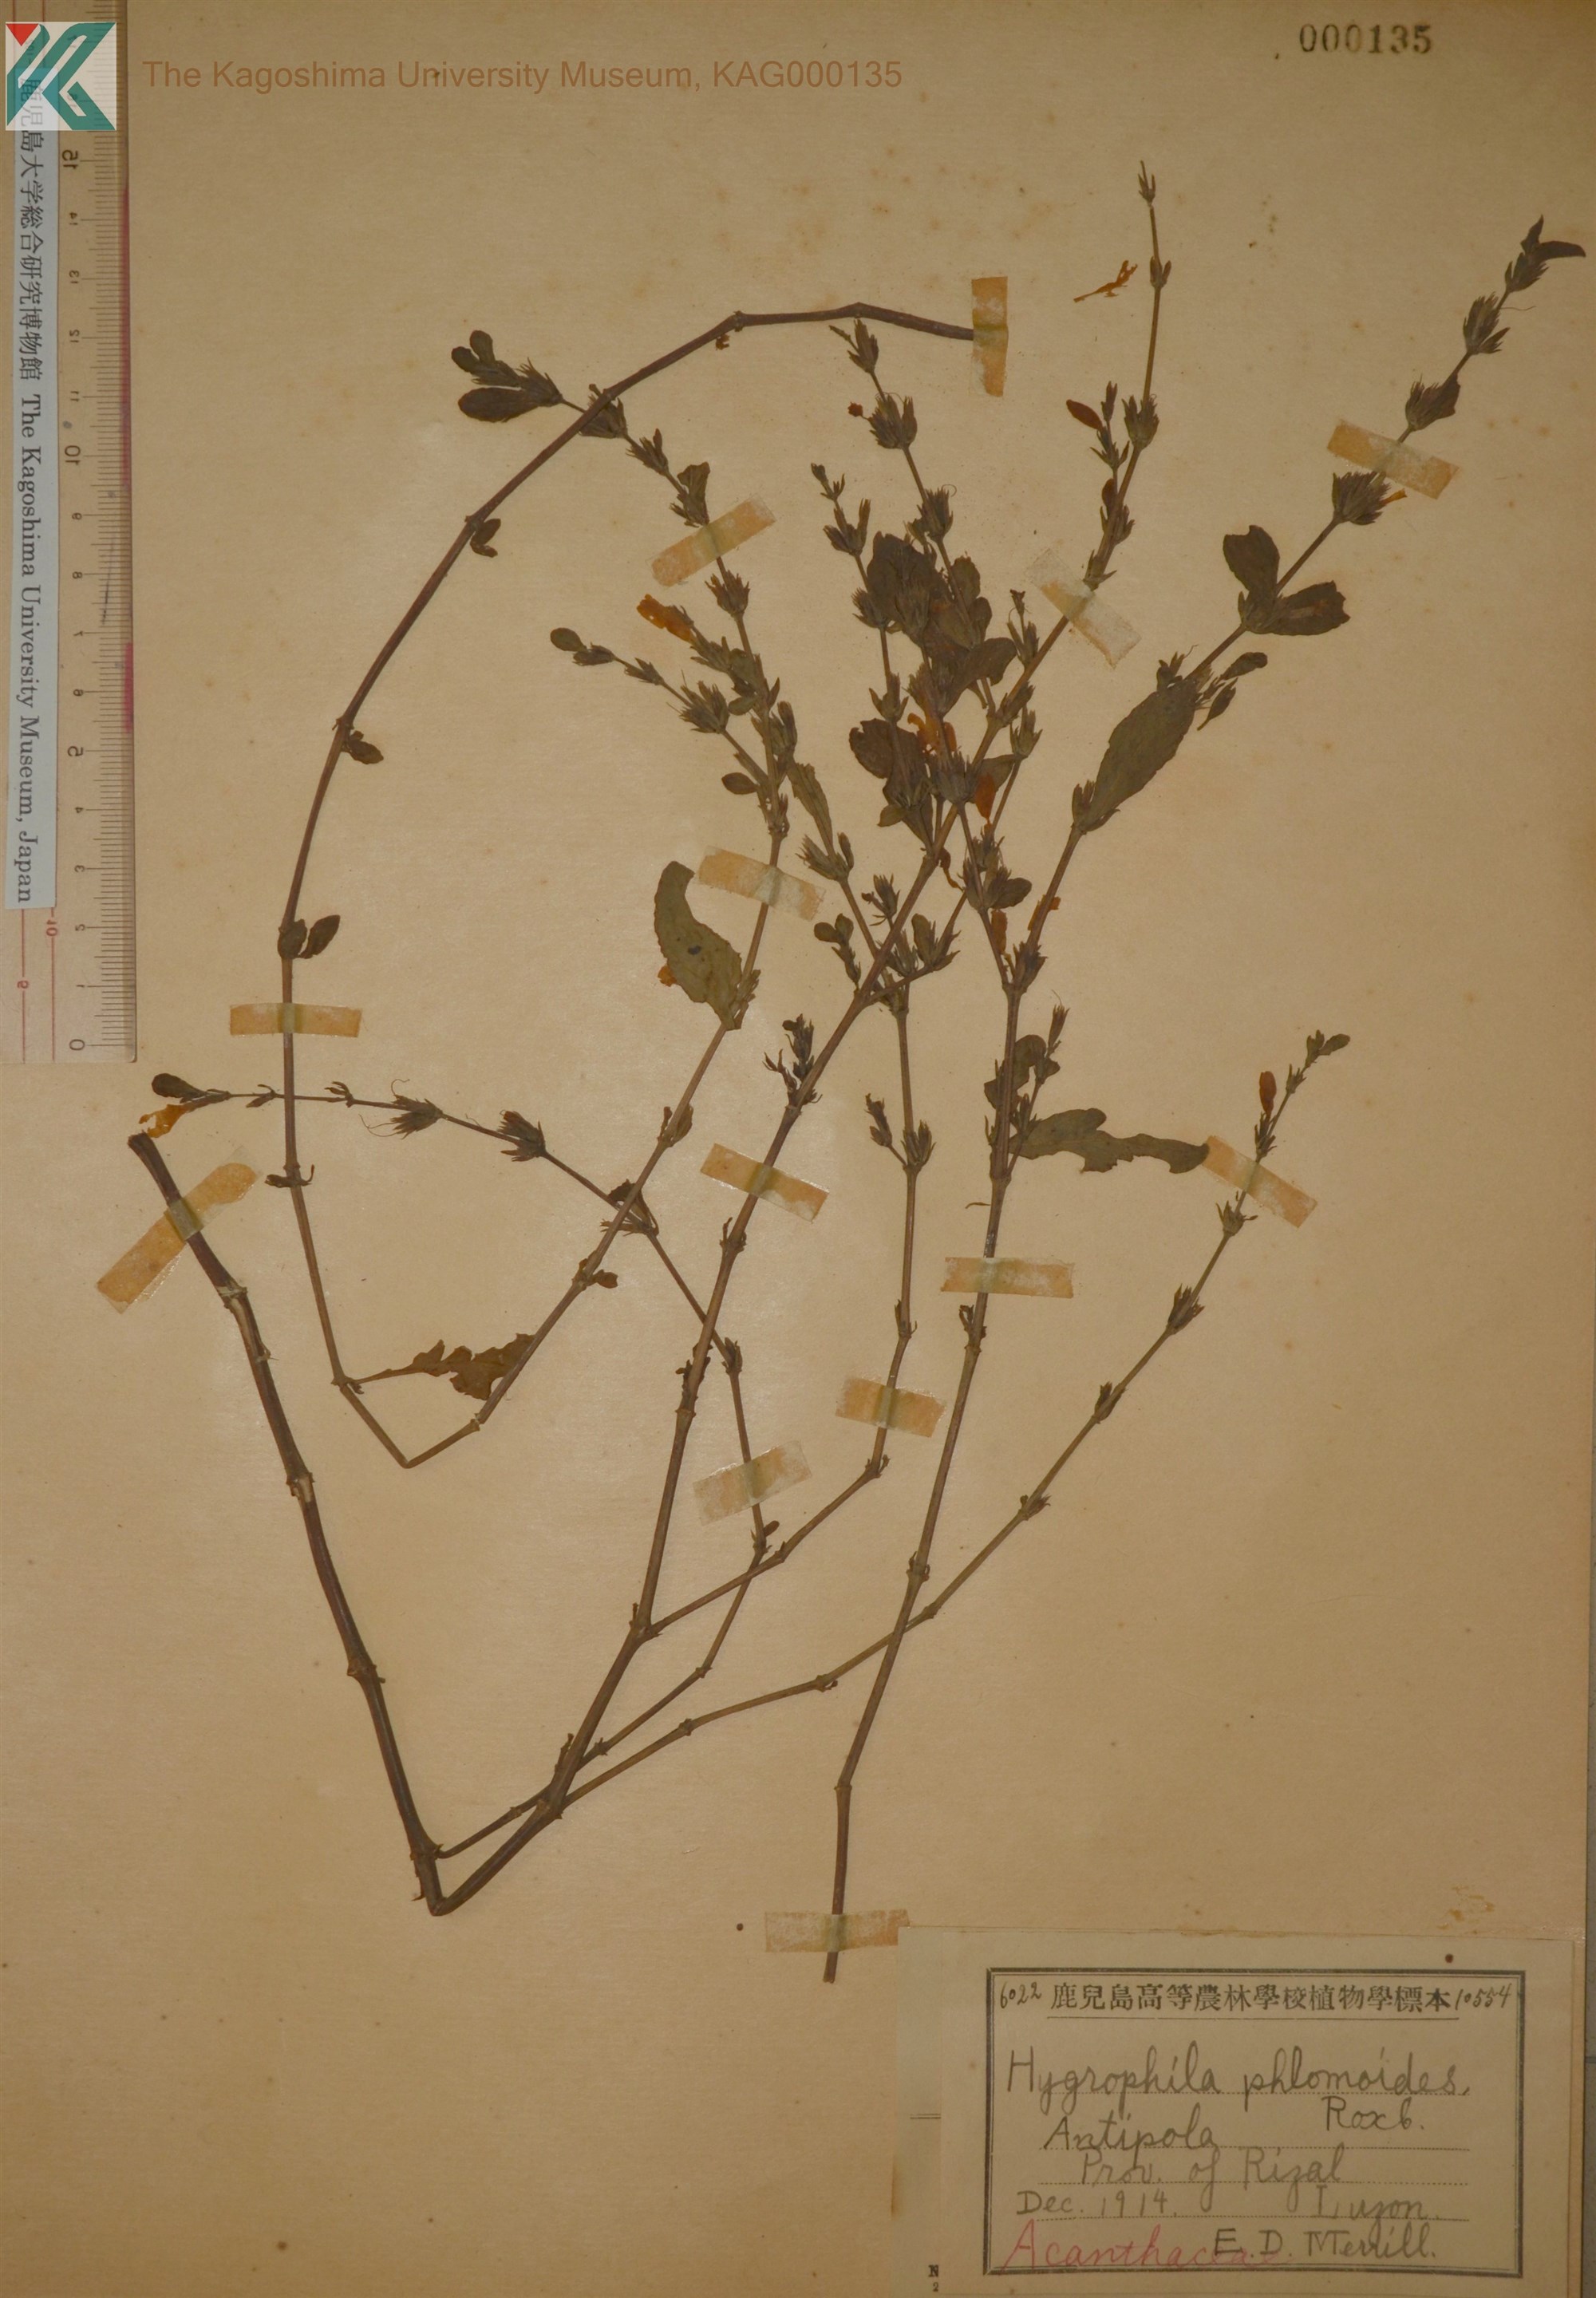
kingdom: Plantae
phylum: Tracheophyta
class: Magnoliopsida
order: Lamiales
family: Acanthaceae
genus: Hygrophila
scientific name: Hygrophila phlomoides
